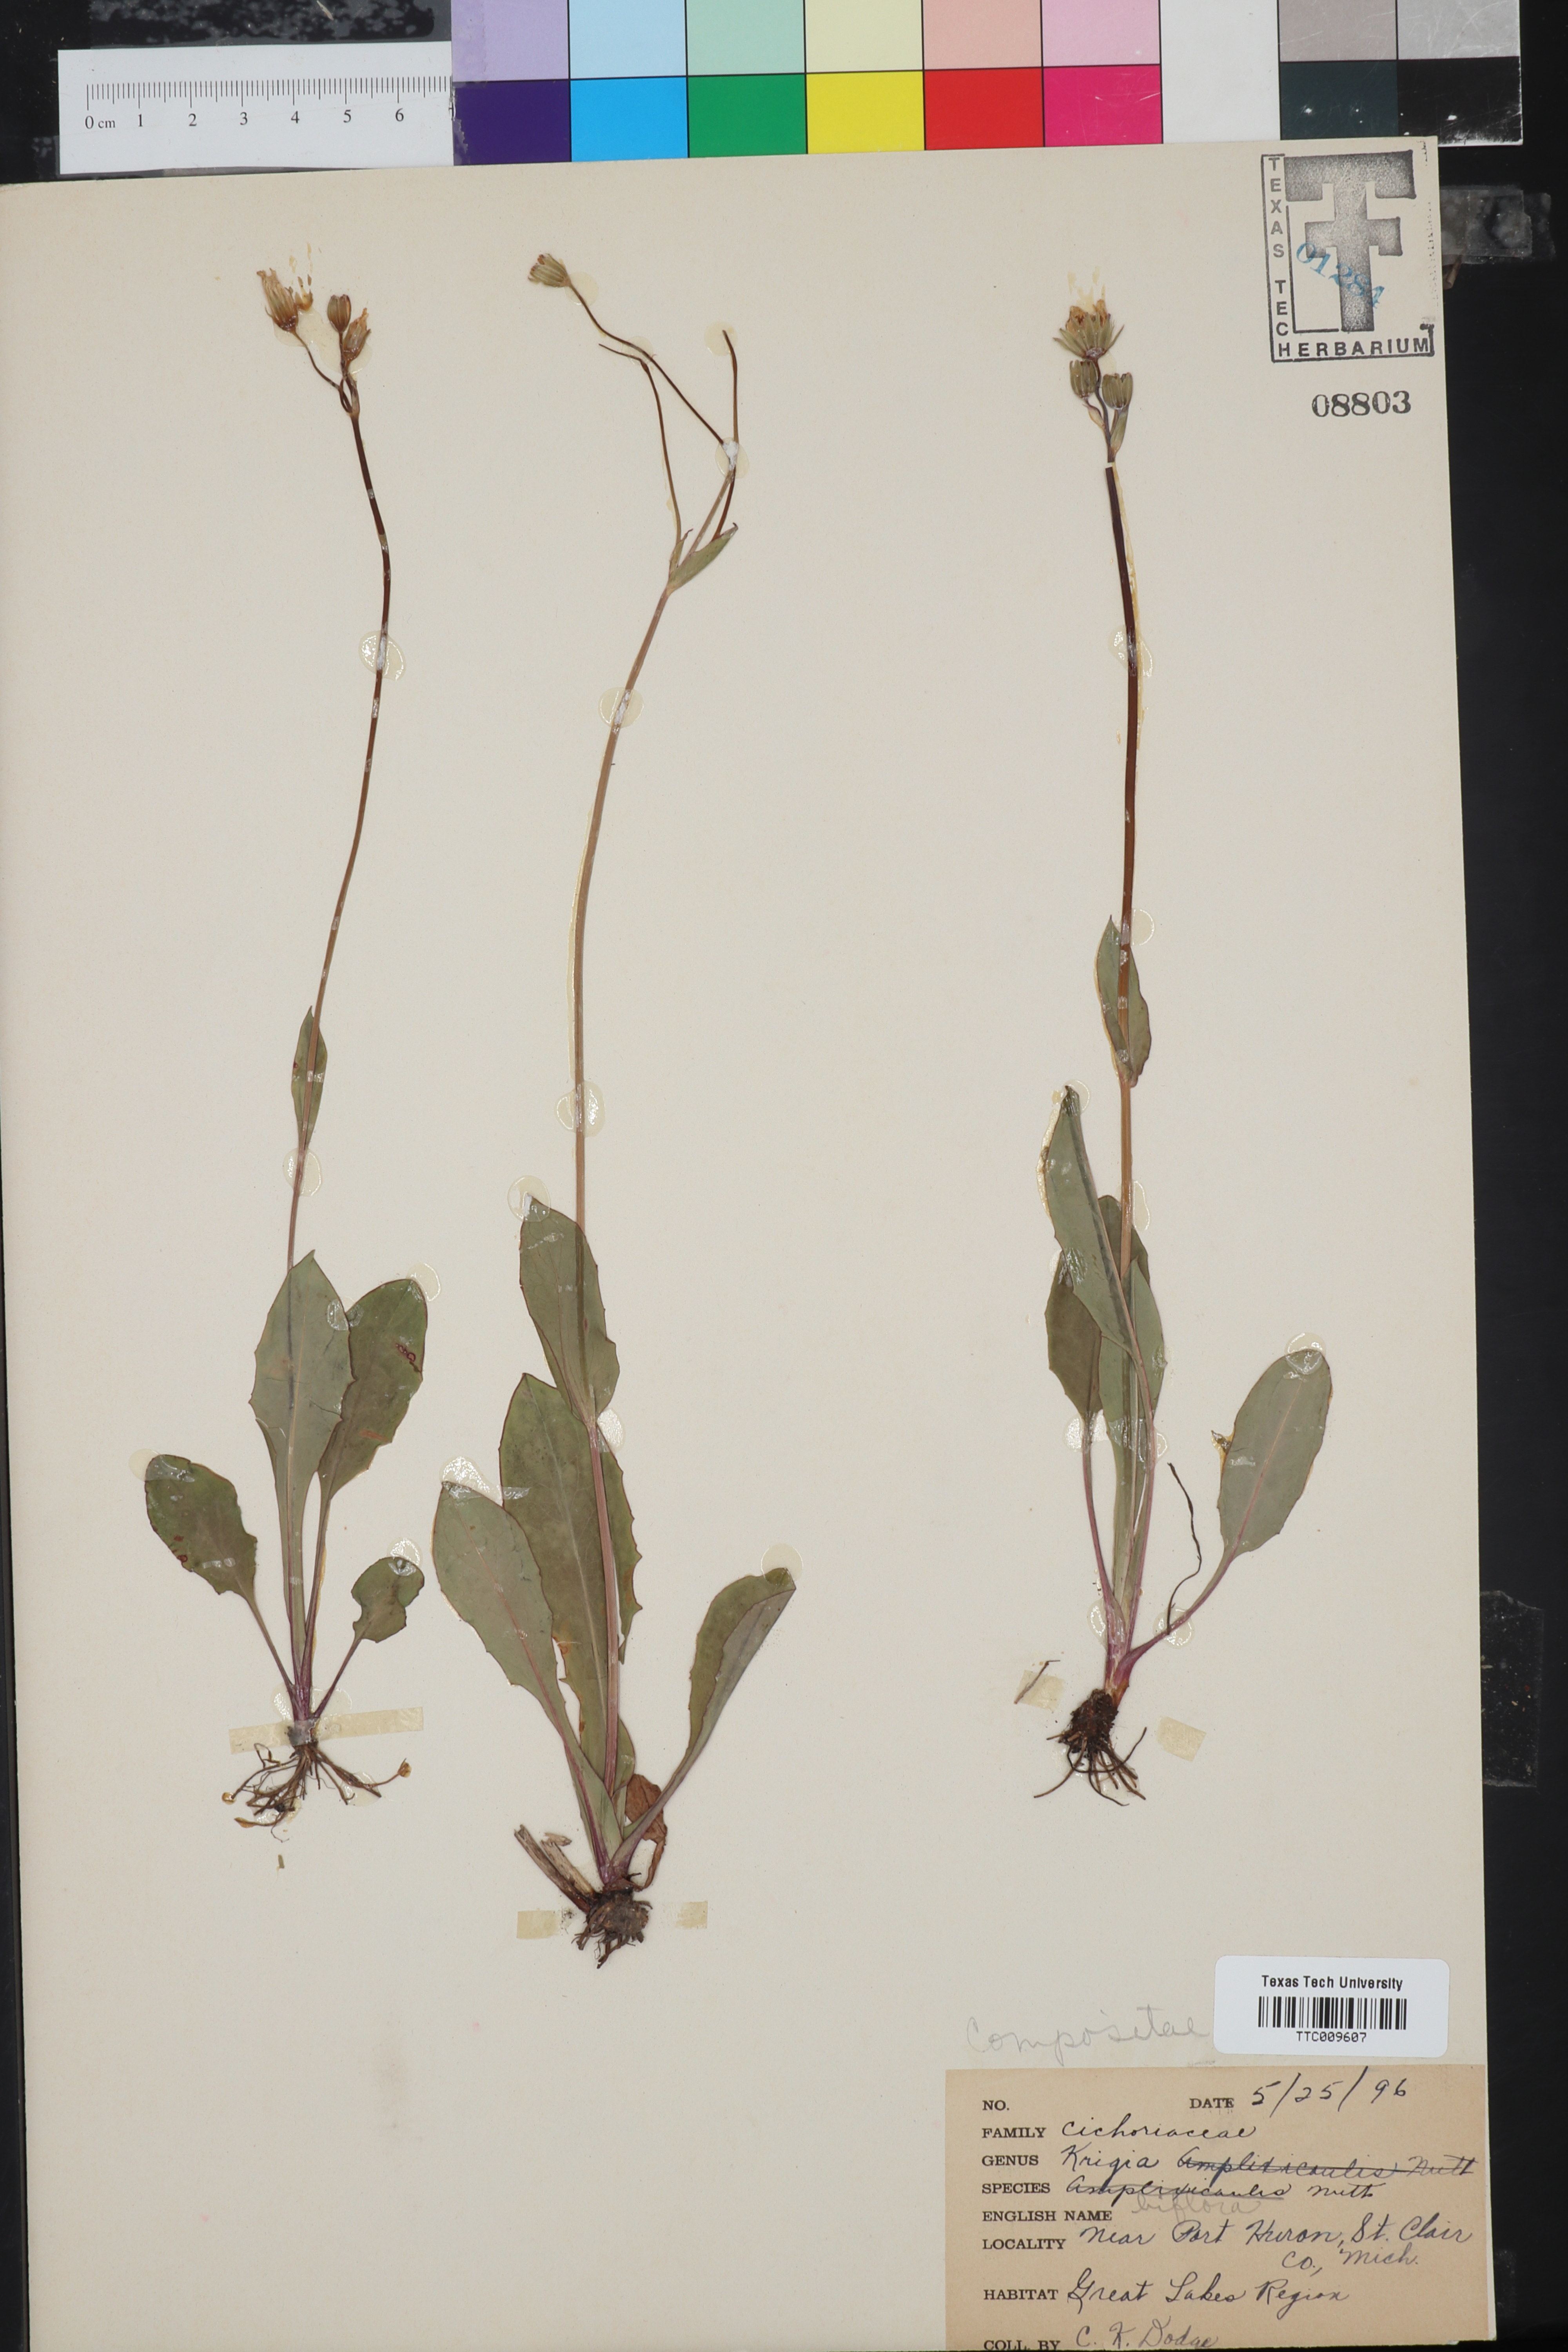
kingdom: Plantae
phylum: Tracheophyta
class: Magnoliopsida
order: Asterales
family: Asteraceae
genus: Krigia
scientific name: Krigia biflora
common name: Orange dwarf-dandelion
